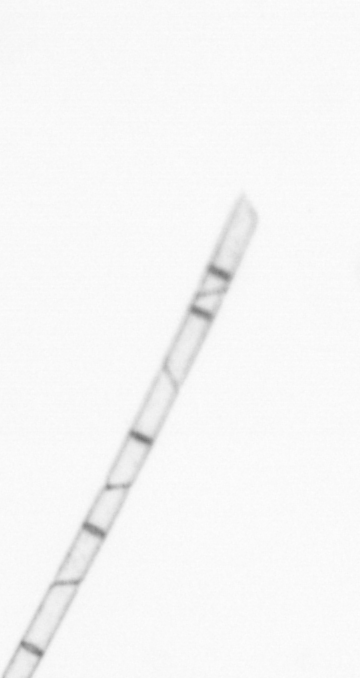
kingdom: Chromista
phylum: Ochrophyta
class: Bacillariophyceae
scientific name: Bacillariophyceae
